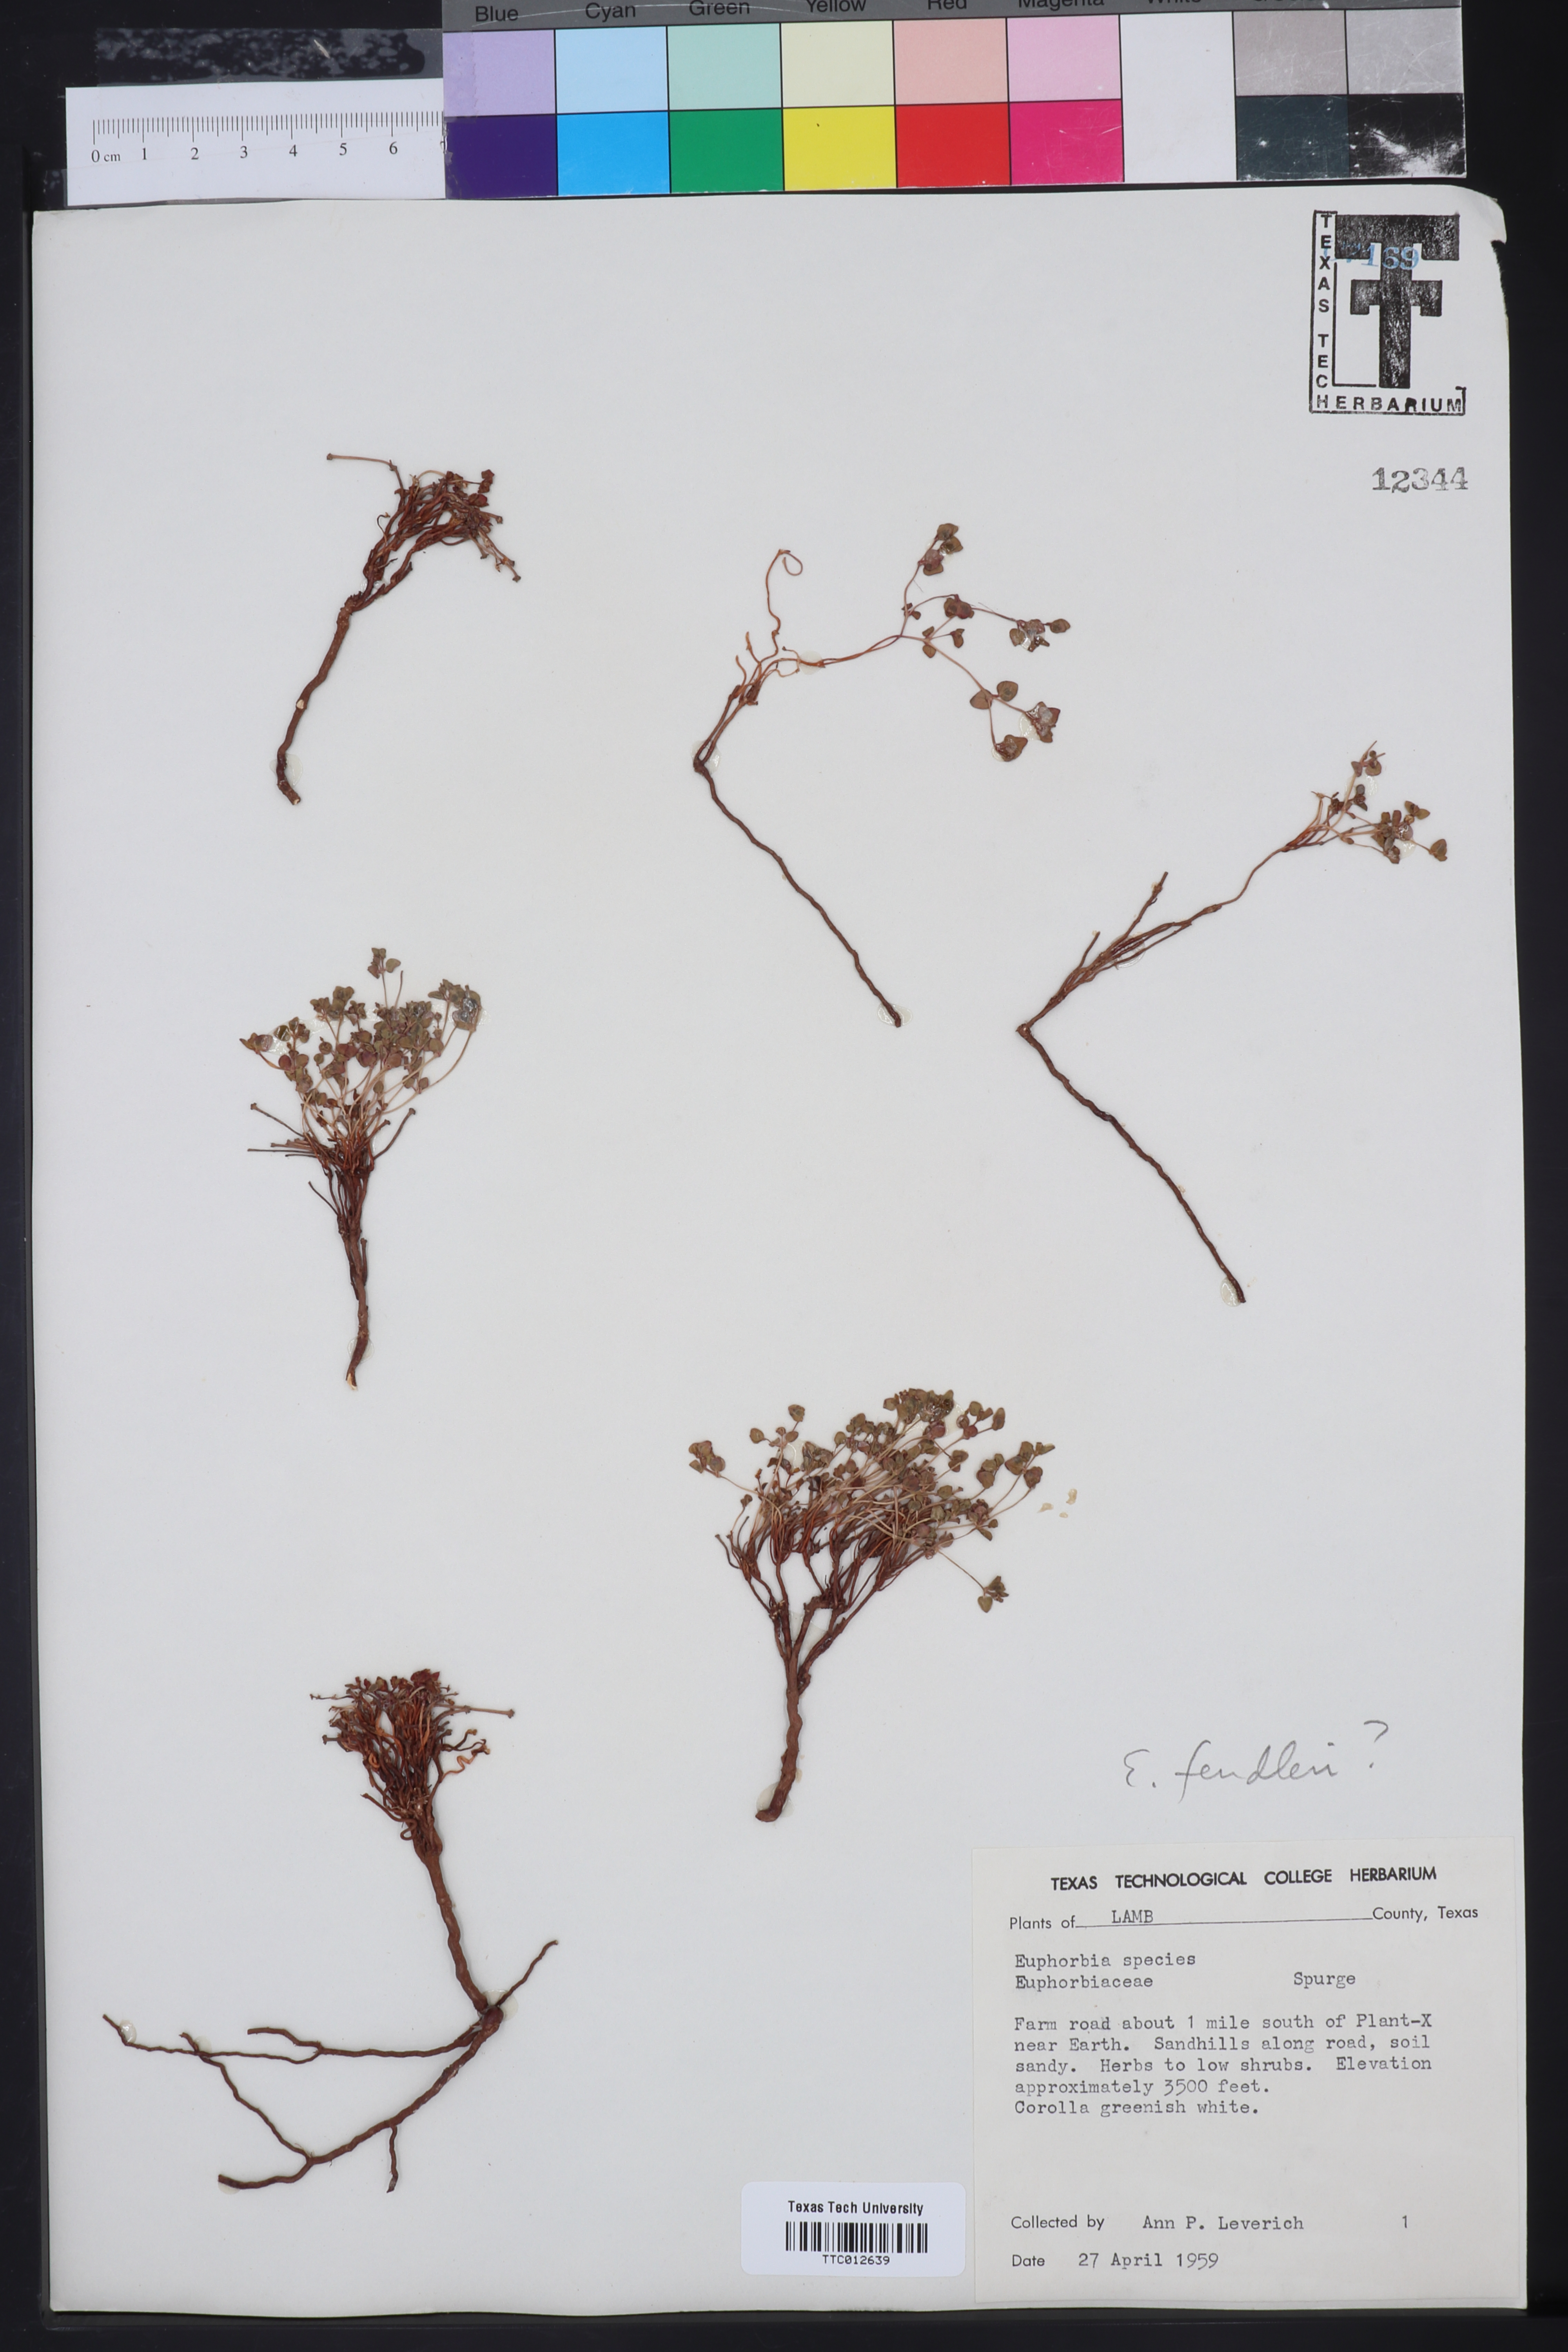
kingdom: Plantae
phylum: Tracheophyta
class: Magnoliopsida
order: Malpighiales
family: Euphorbiaceae
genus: Euphorbia
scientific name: Euphorbia fendleri
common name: Fendler's euphorbia
